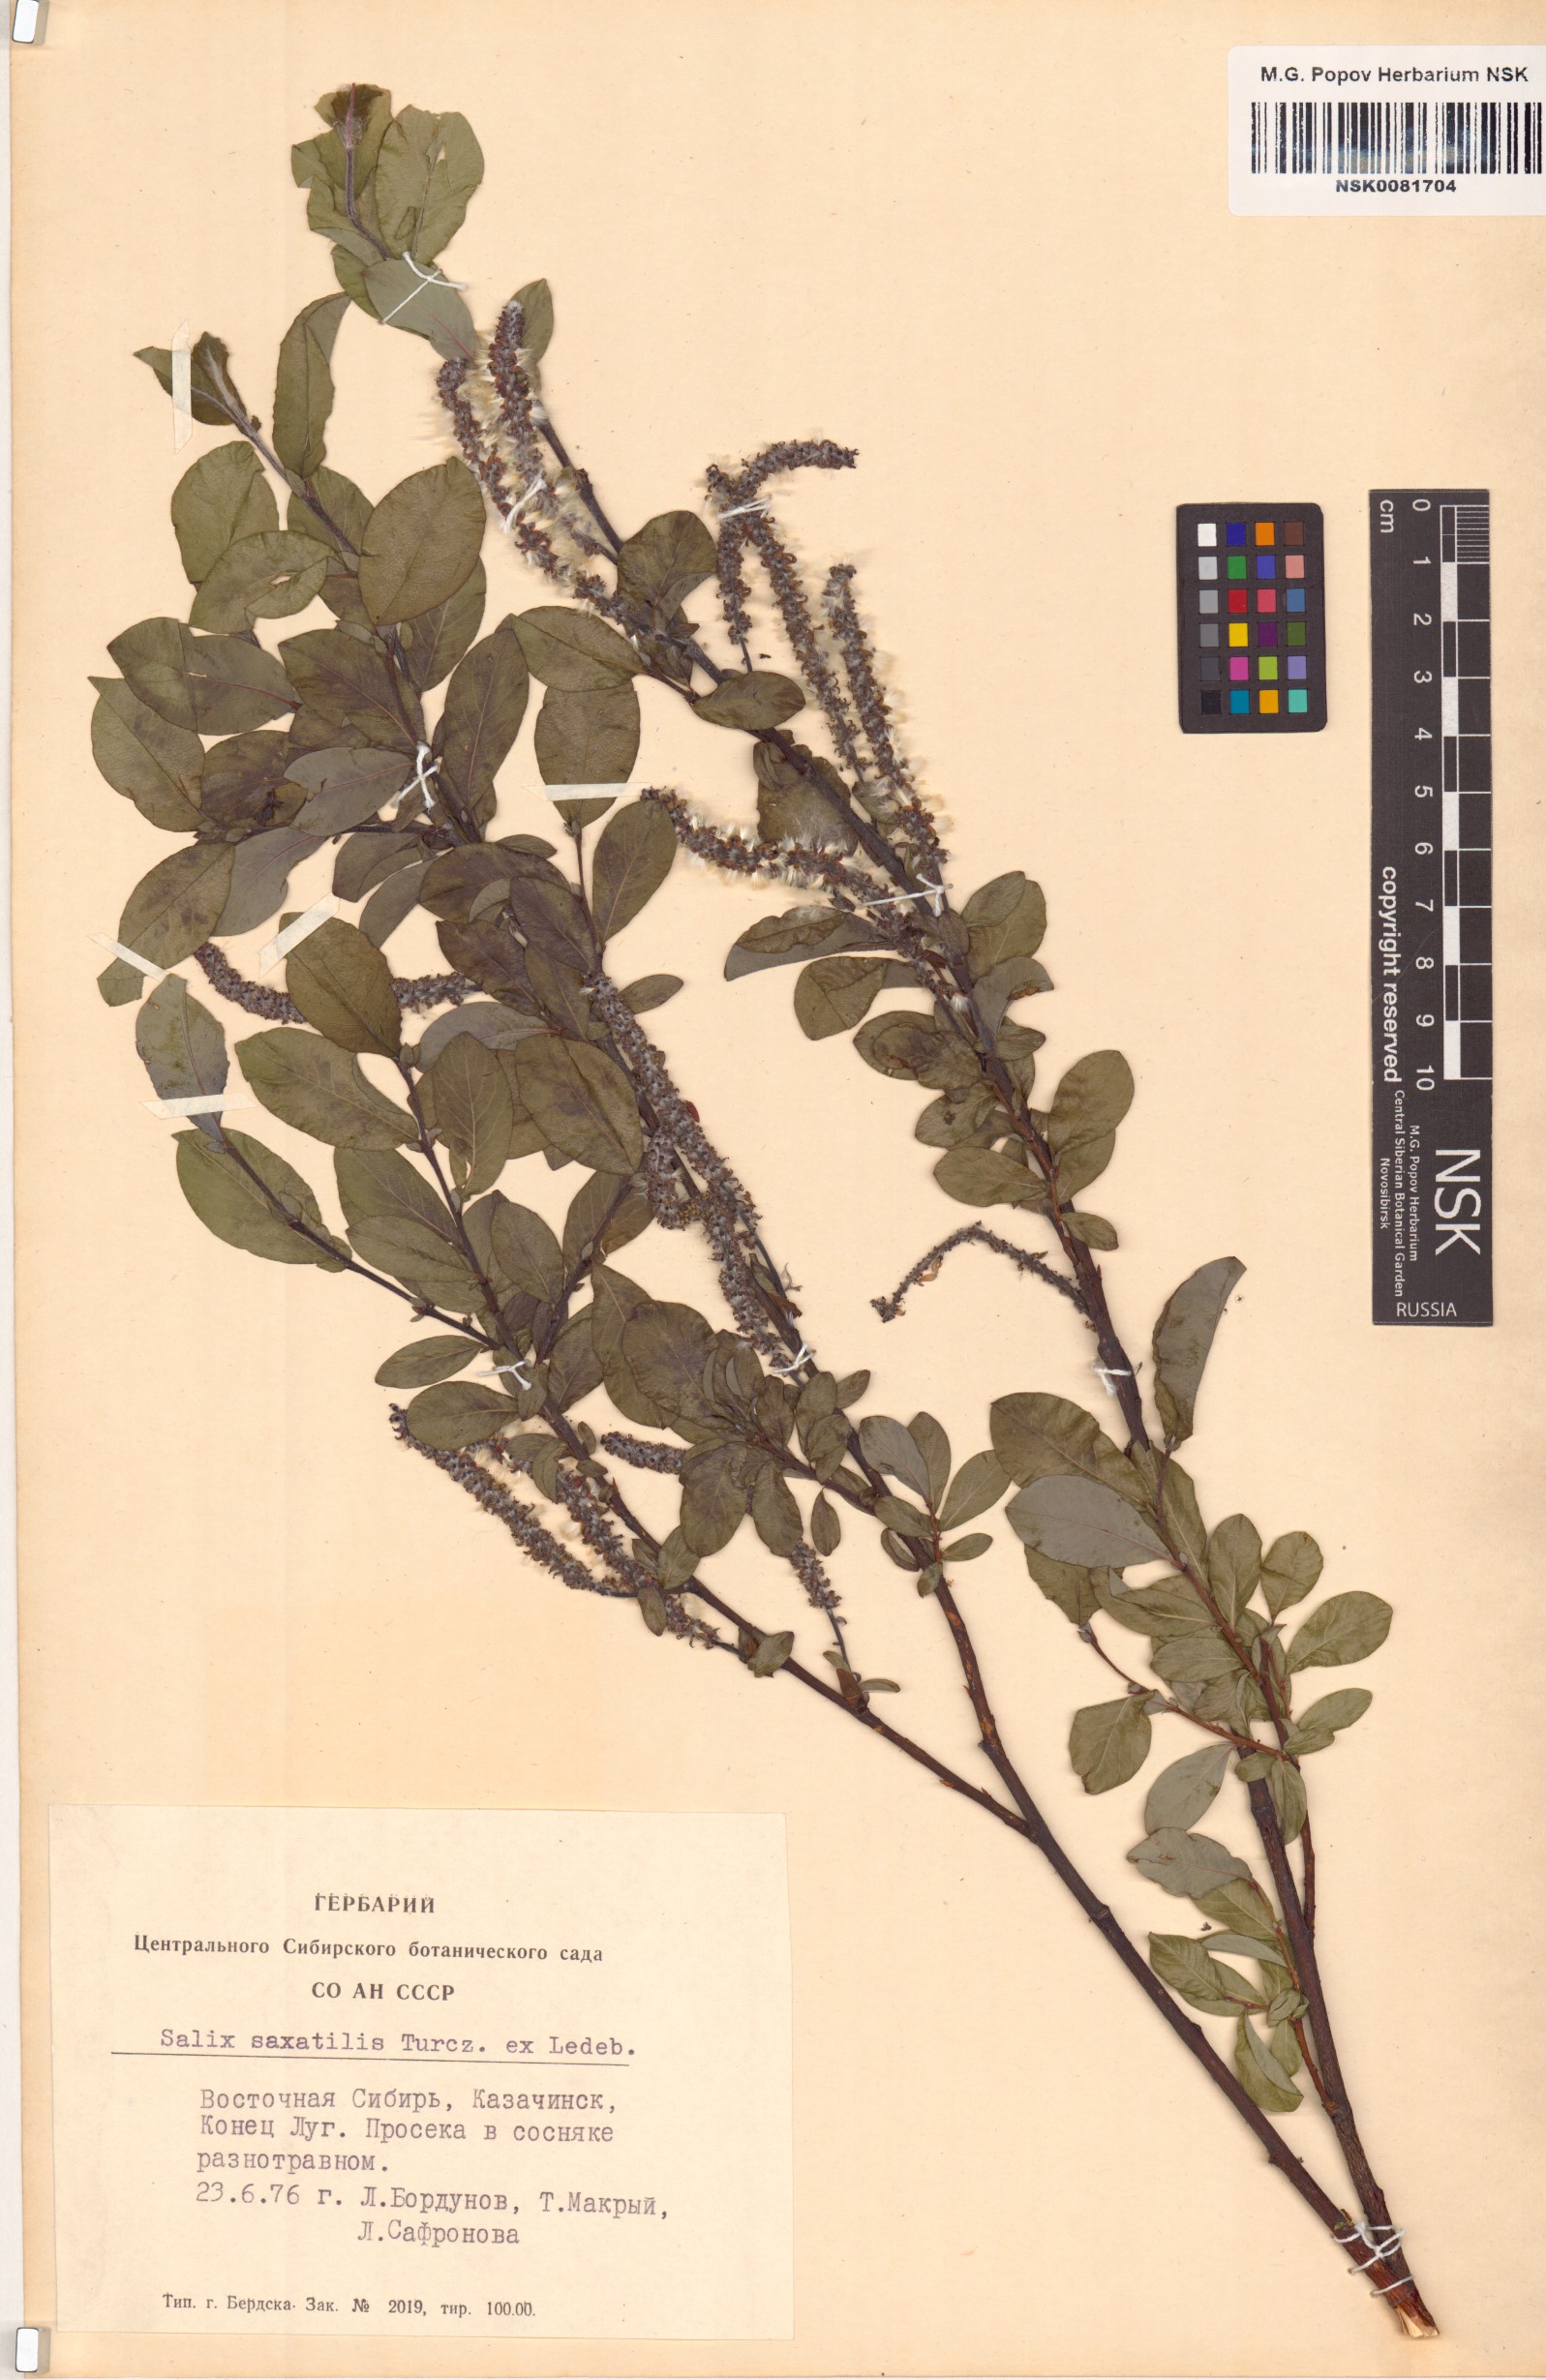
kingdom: Plantae
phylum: Tracheophyta
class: Magnoliopsida
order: Malpighiales
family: Salicaceae
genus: Salix
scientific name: Salix saxatilis
